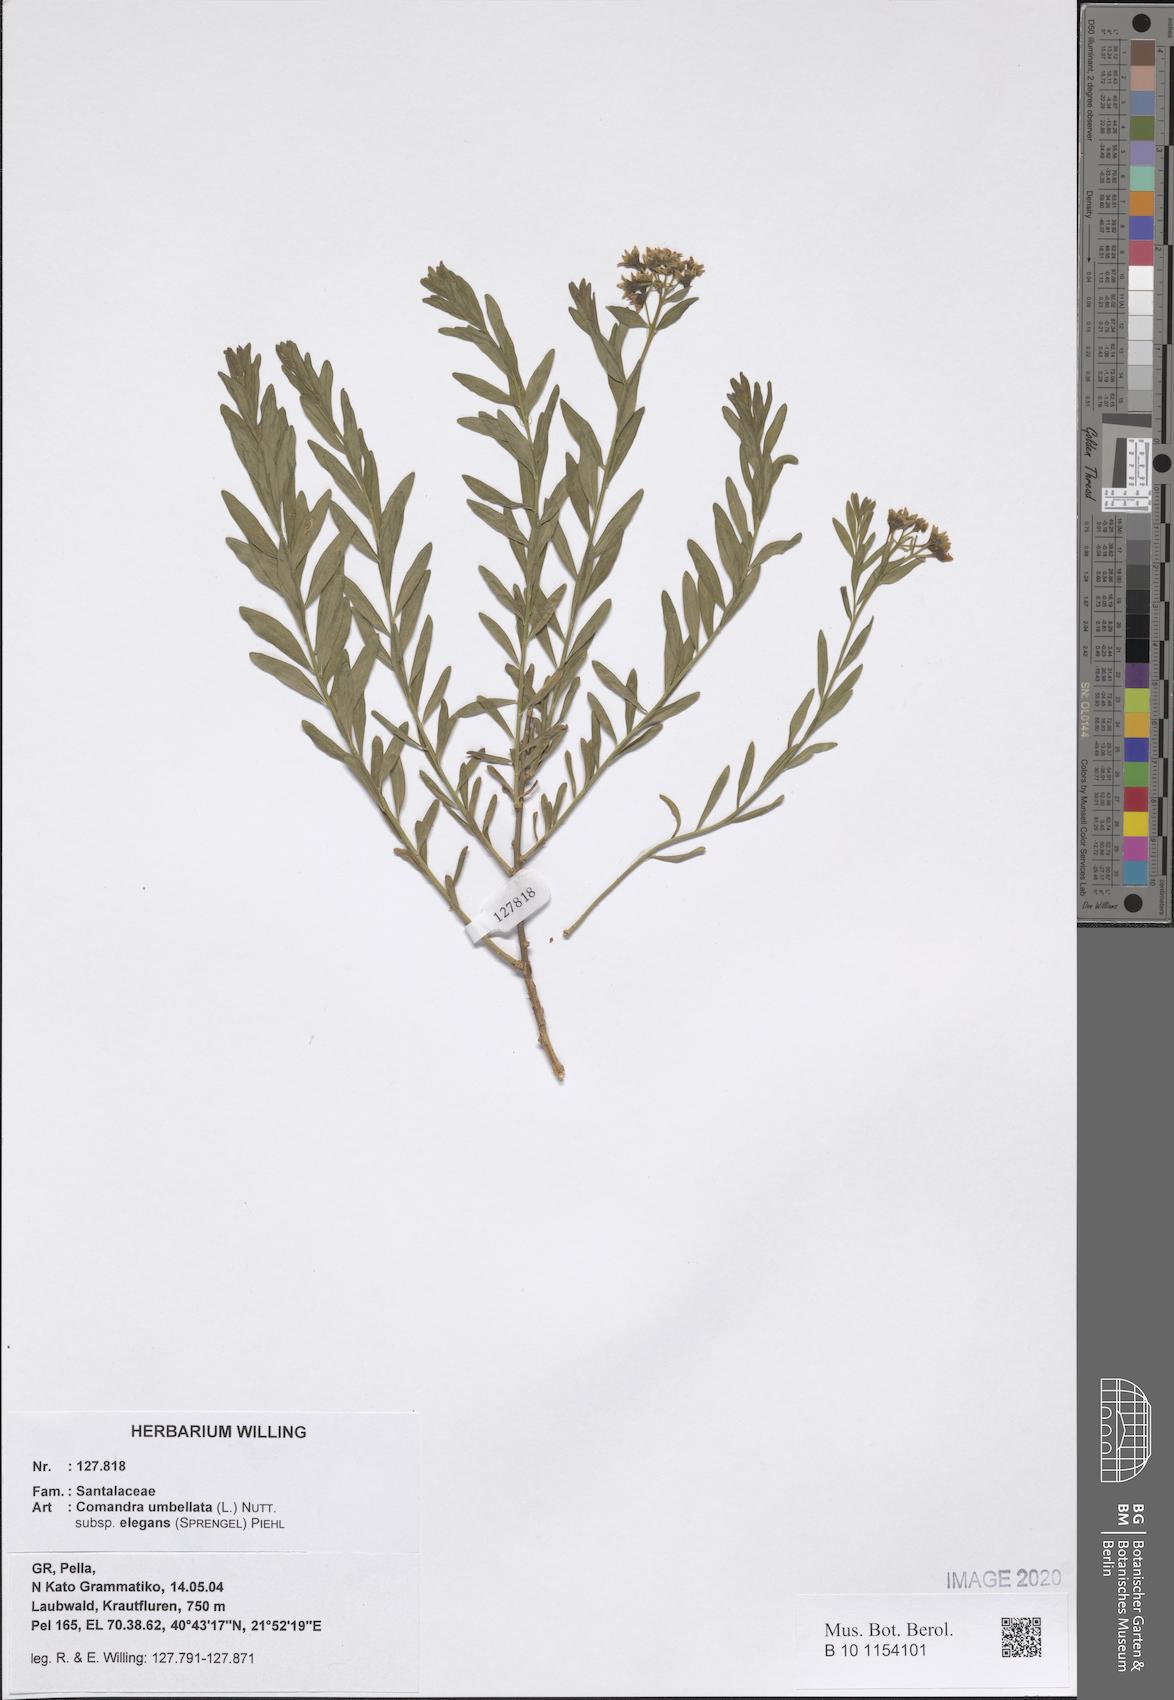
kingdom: Plantae
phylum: Tracheophyta
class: Magnoliopsida
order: Santalales
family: Comandraceae
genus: Comandra
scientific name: Comandra umbellata
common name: Bastard toadflax
